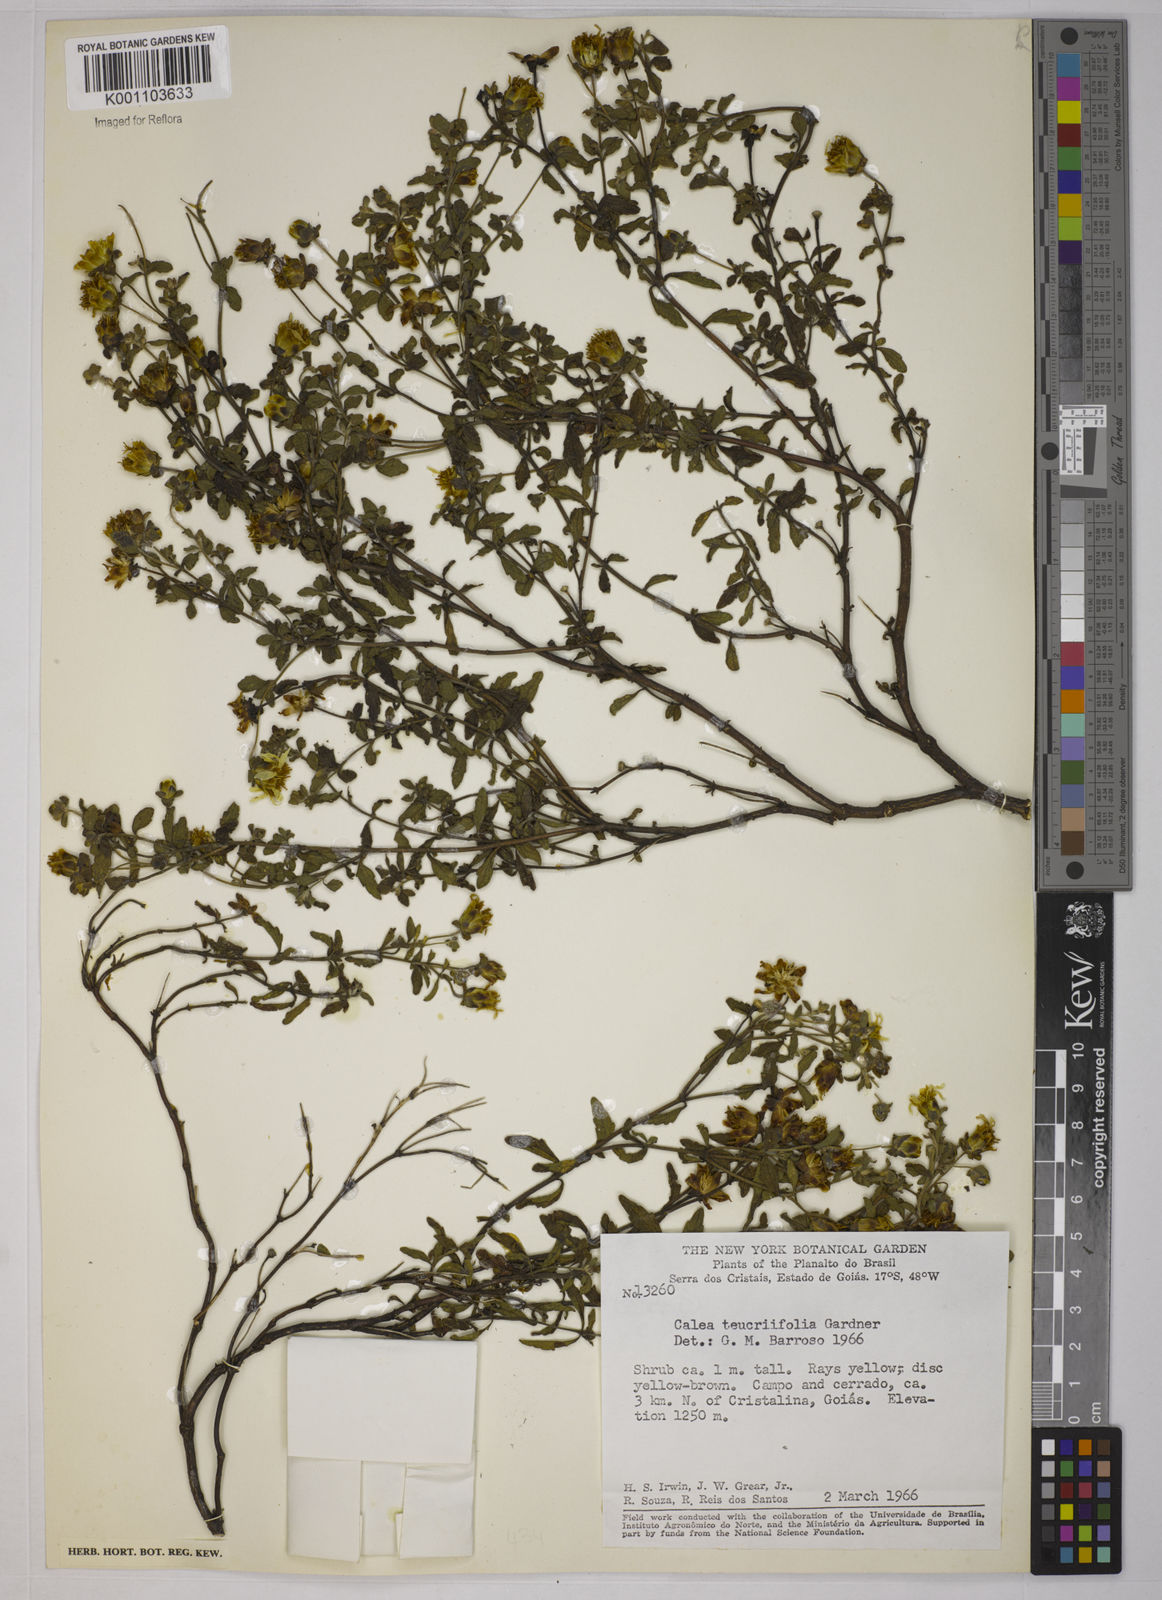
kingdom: Plantae
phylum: Tracheophyta
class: Magnoliopsida
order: Asterales
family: Asteraceae
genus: Calea
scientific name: Calea teucriifolia
